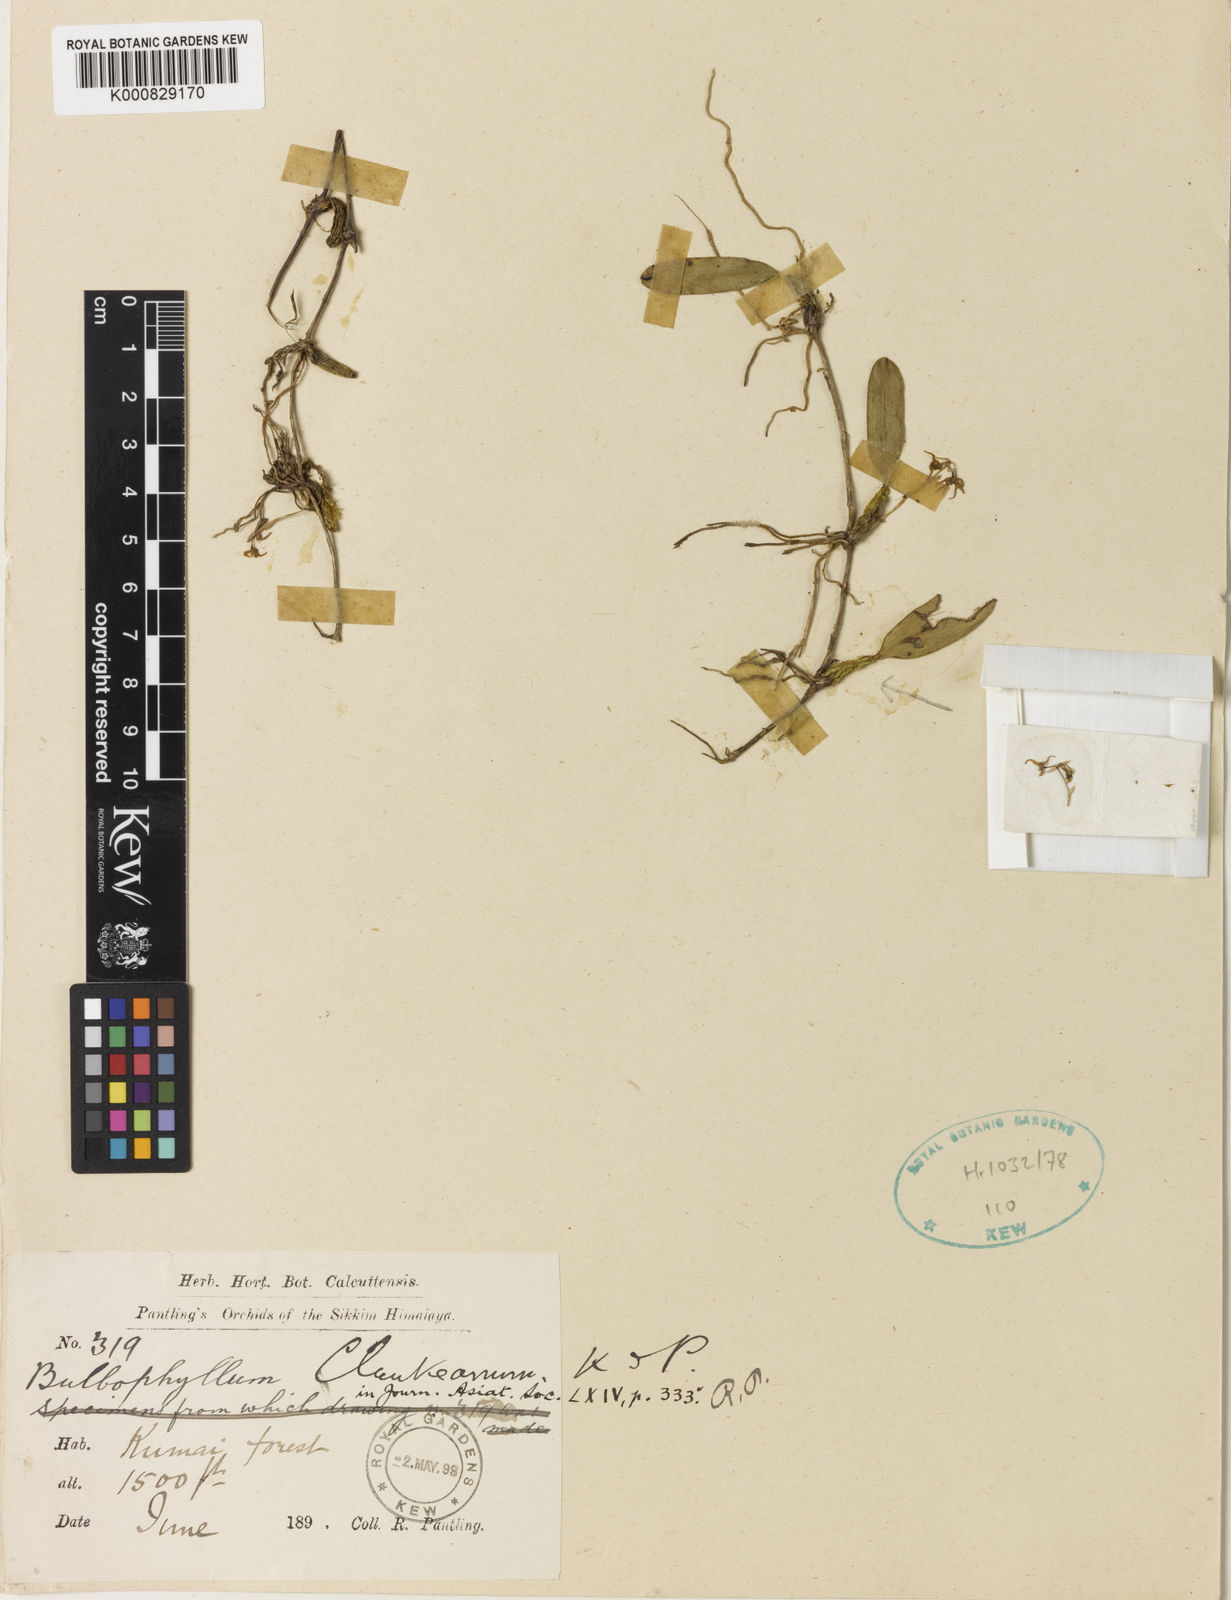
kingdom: Plantae
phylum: Tracheophyta
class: Liliopsida
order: Asparagales
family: Orchidaceae
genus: Bulbophyllum
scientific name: Bulbophyllum stenobulbon
